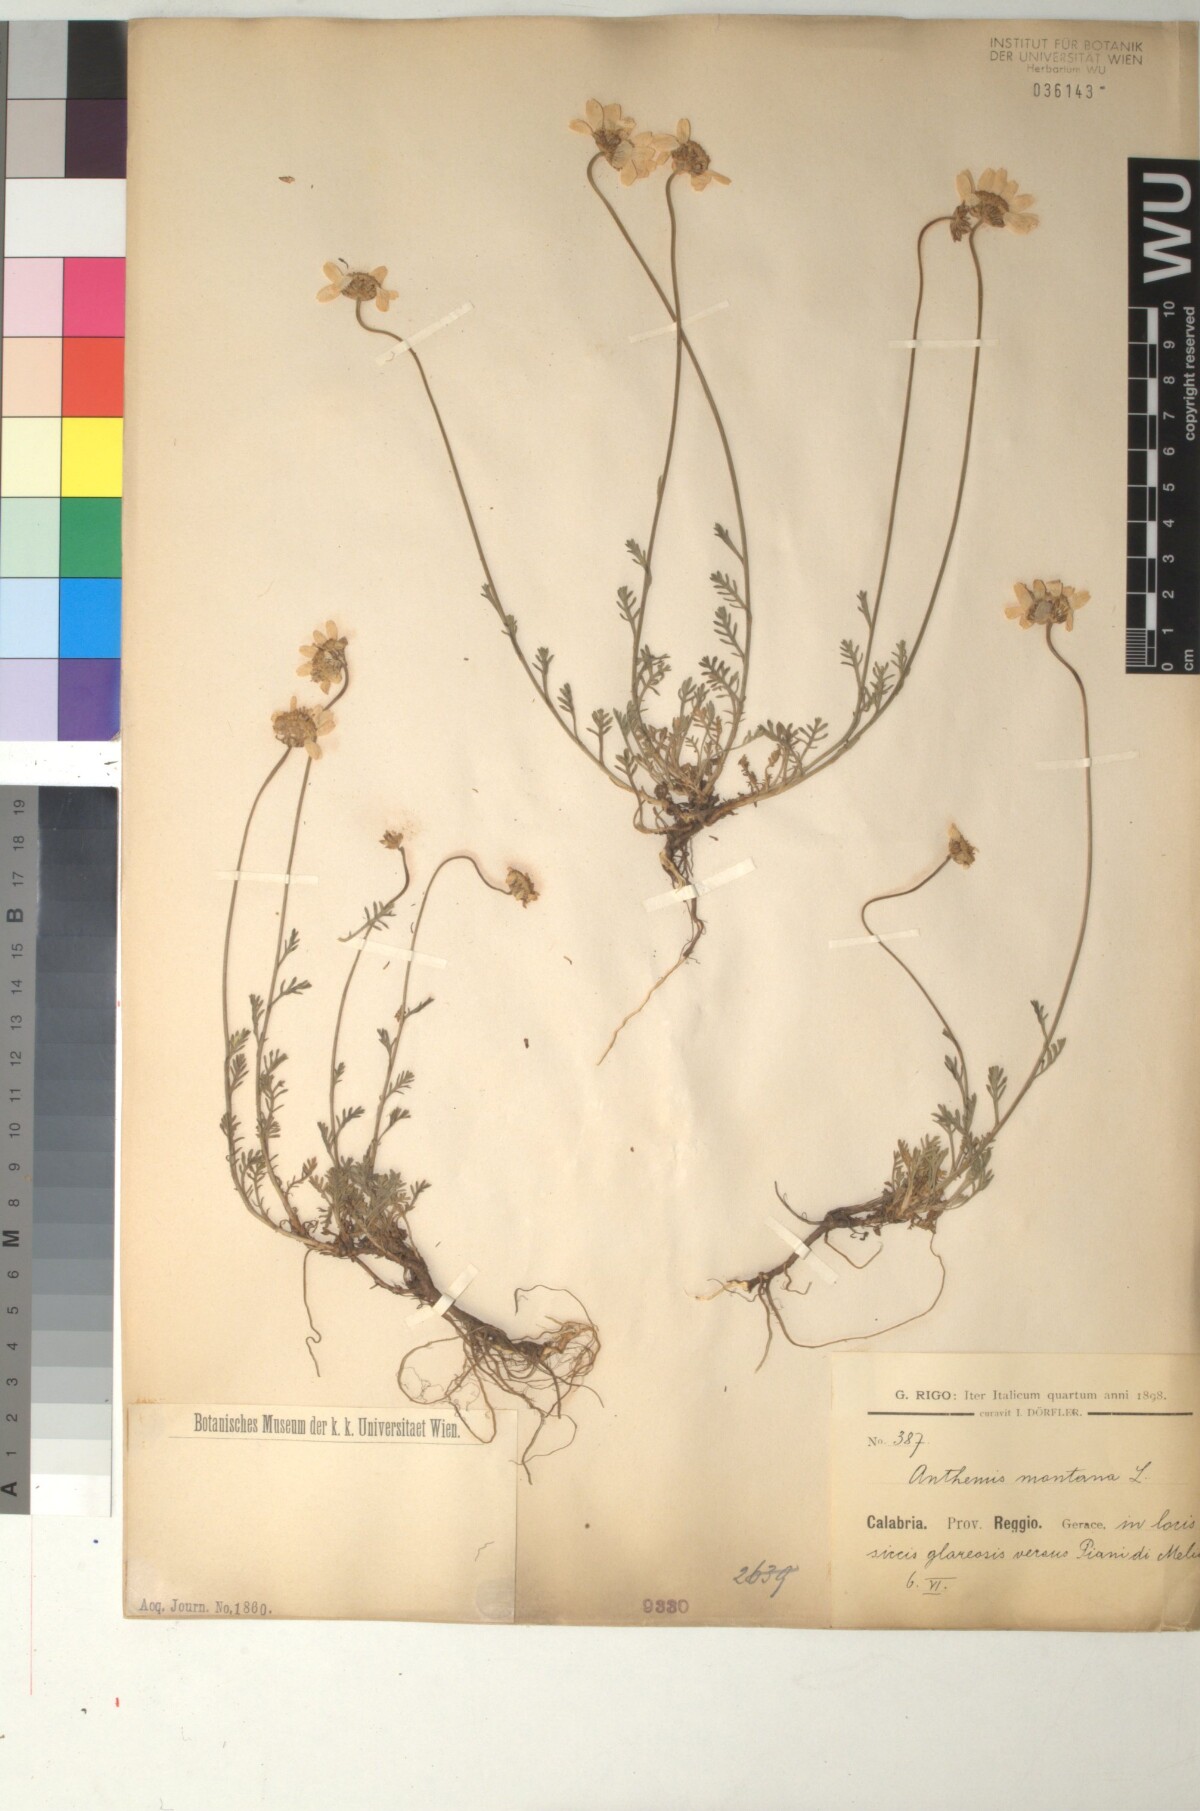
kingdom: Plantae
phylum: Tracheophyta
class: Magnoliopsida
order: Asterales
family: Asteraceae
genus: Anthemis
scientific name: Anthemis cretica
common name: Mountain dog-daisy
